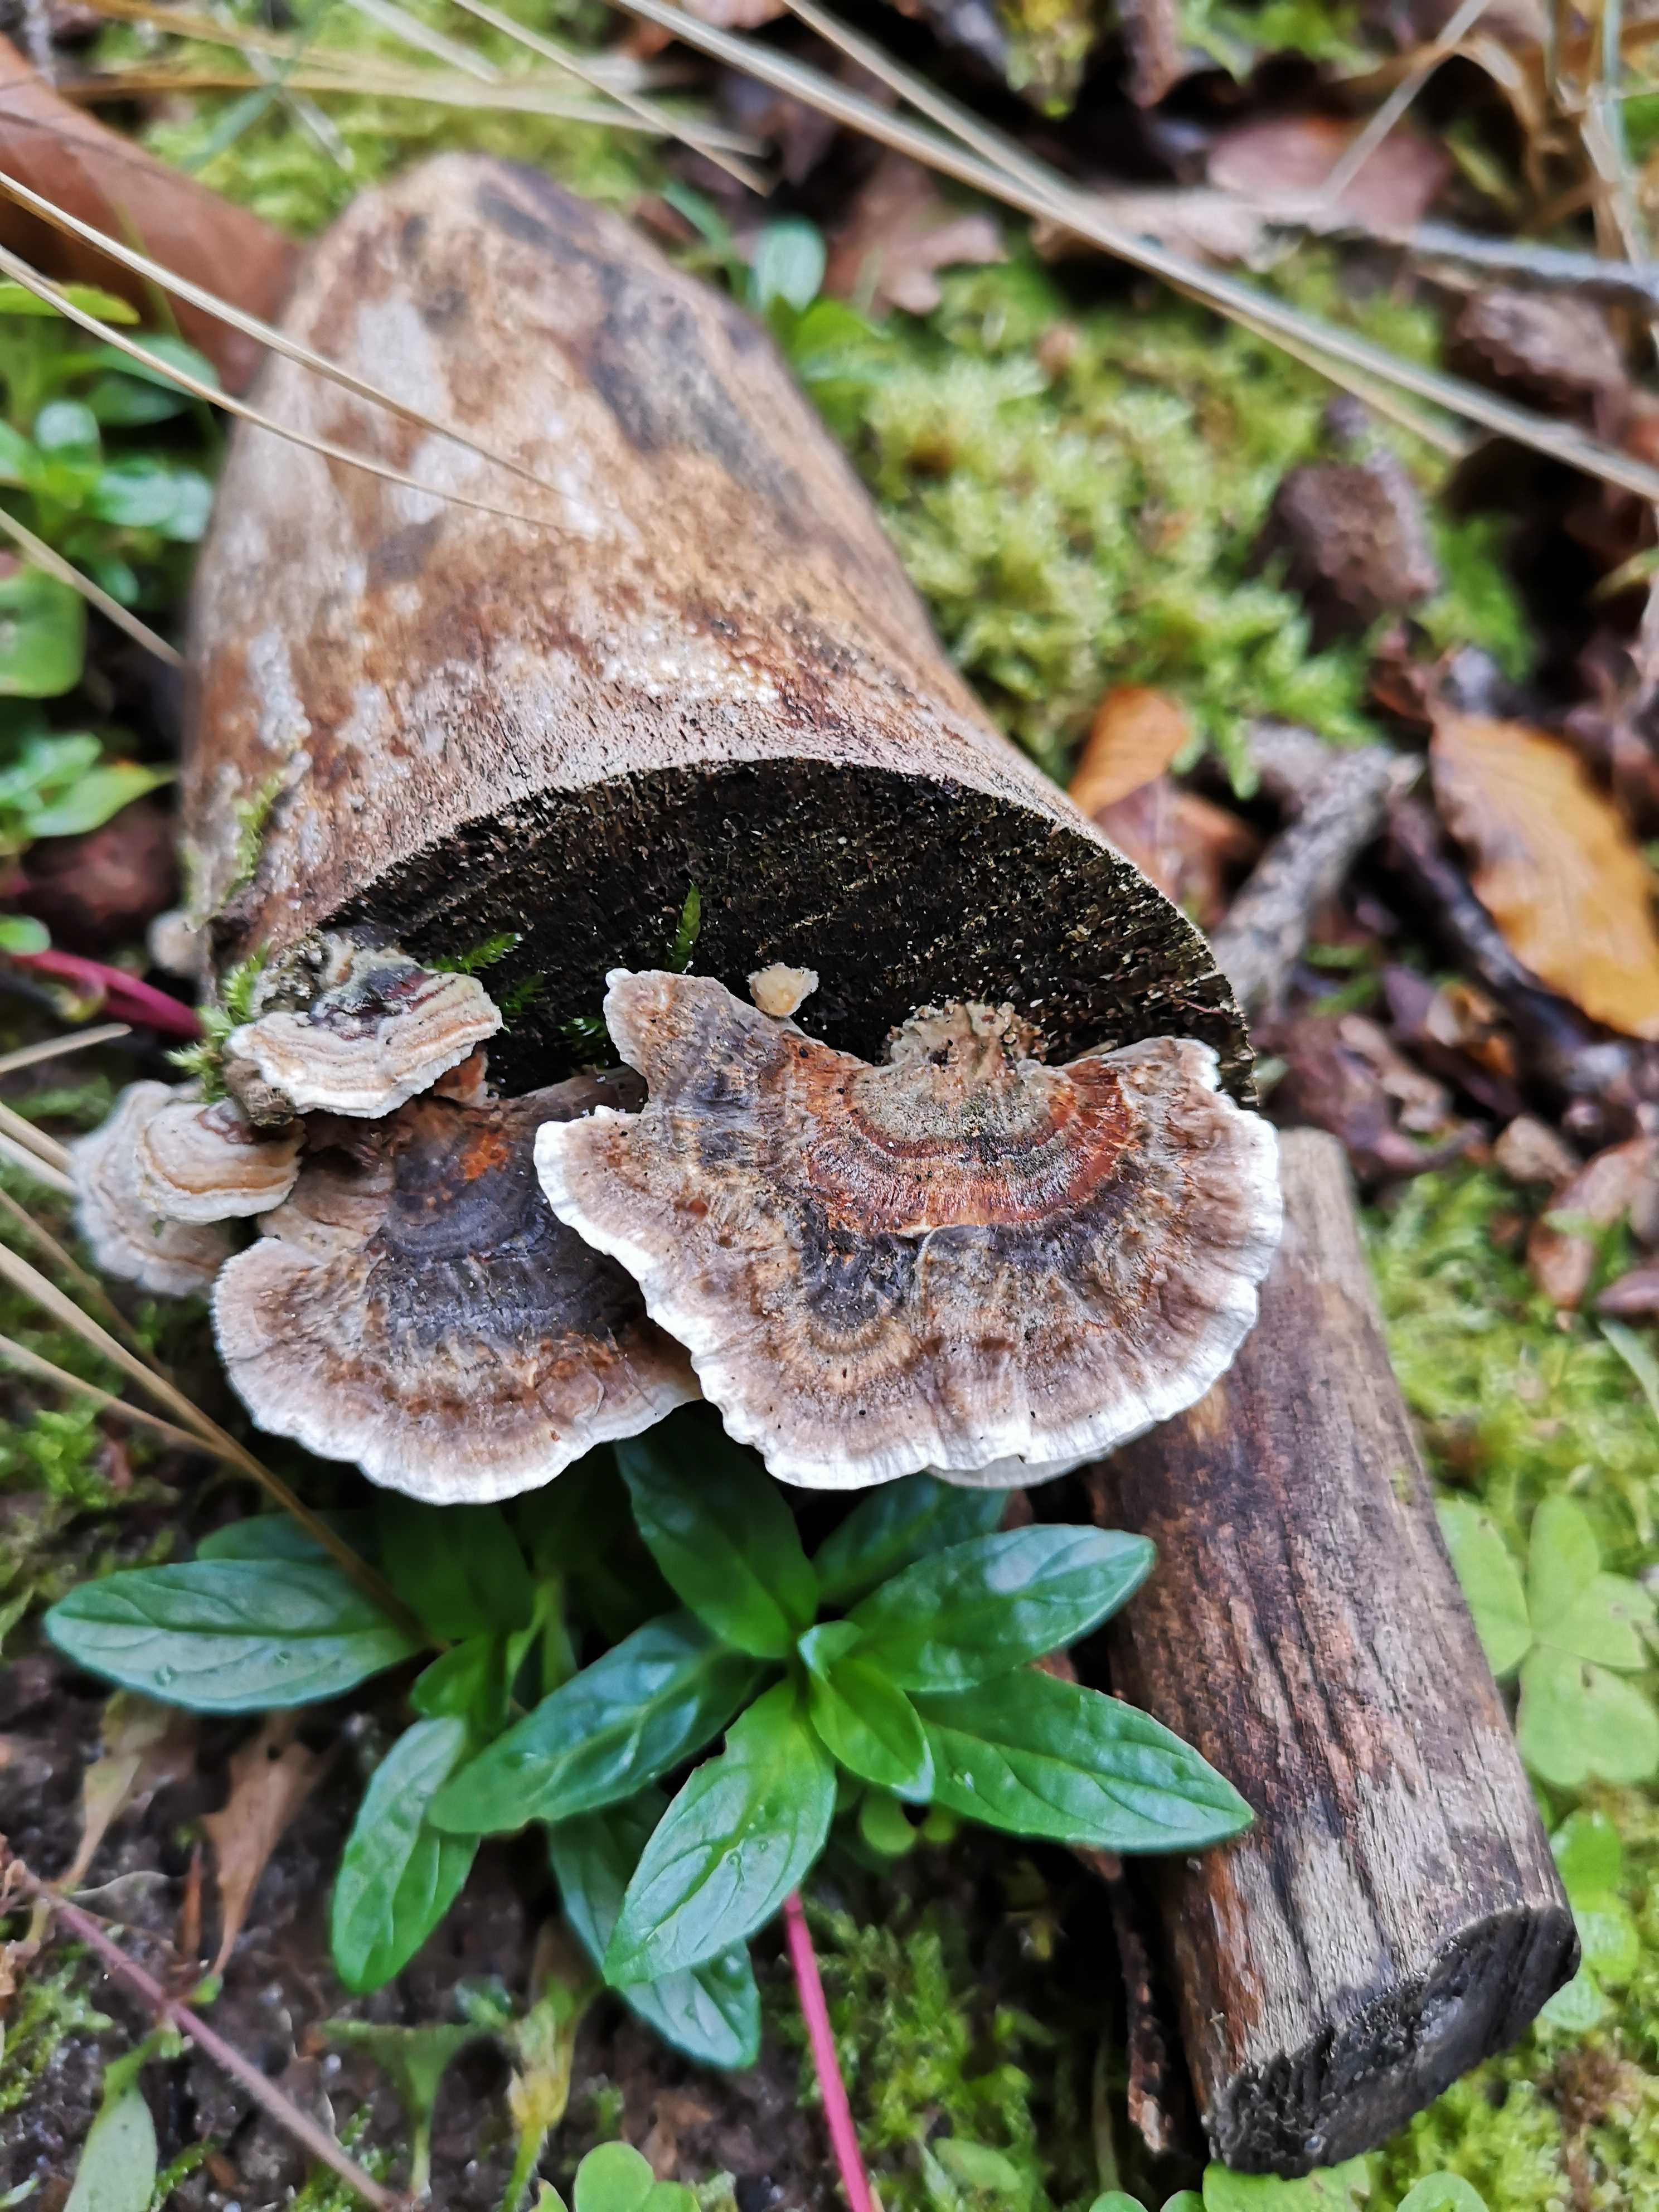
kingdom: Fungi
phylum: Basidiomycota
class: Agaricomycetes
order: Polyporales
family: Polyporaceae
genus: Trametes
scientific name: Trametes versicolor
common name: broget læderporesvamp
